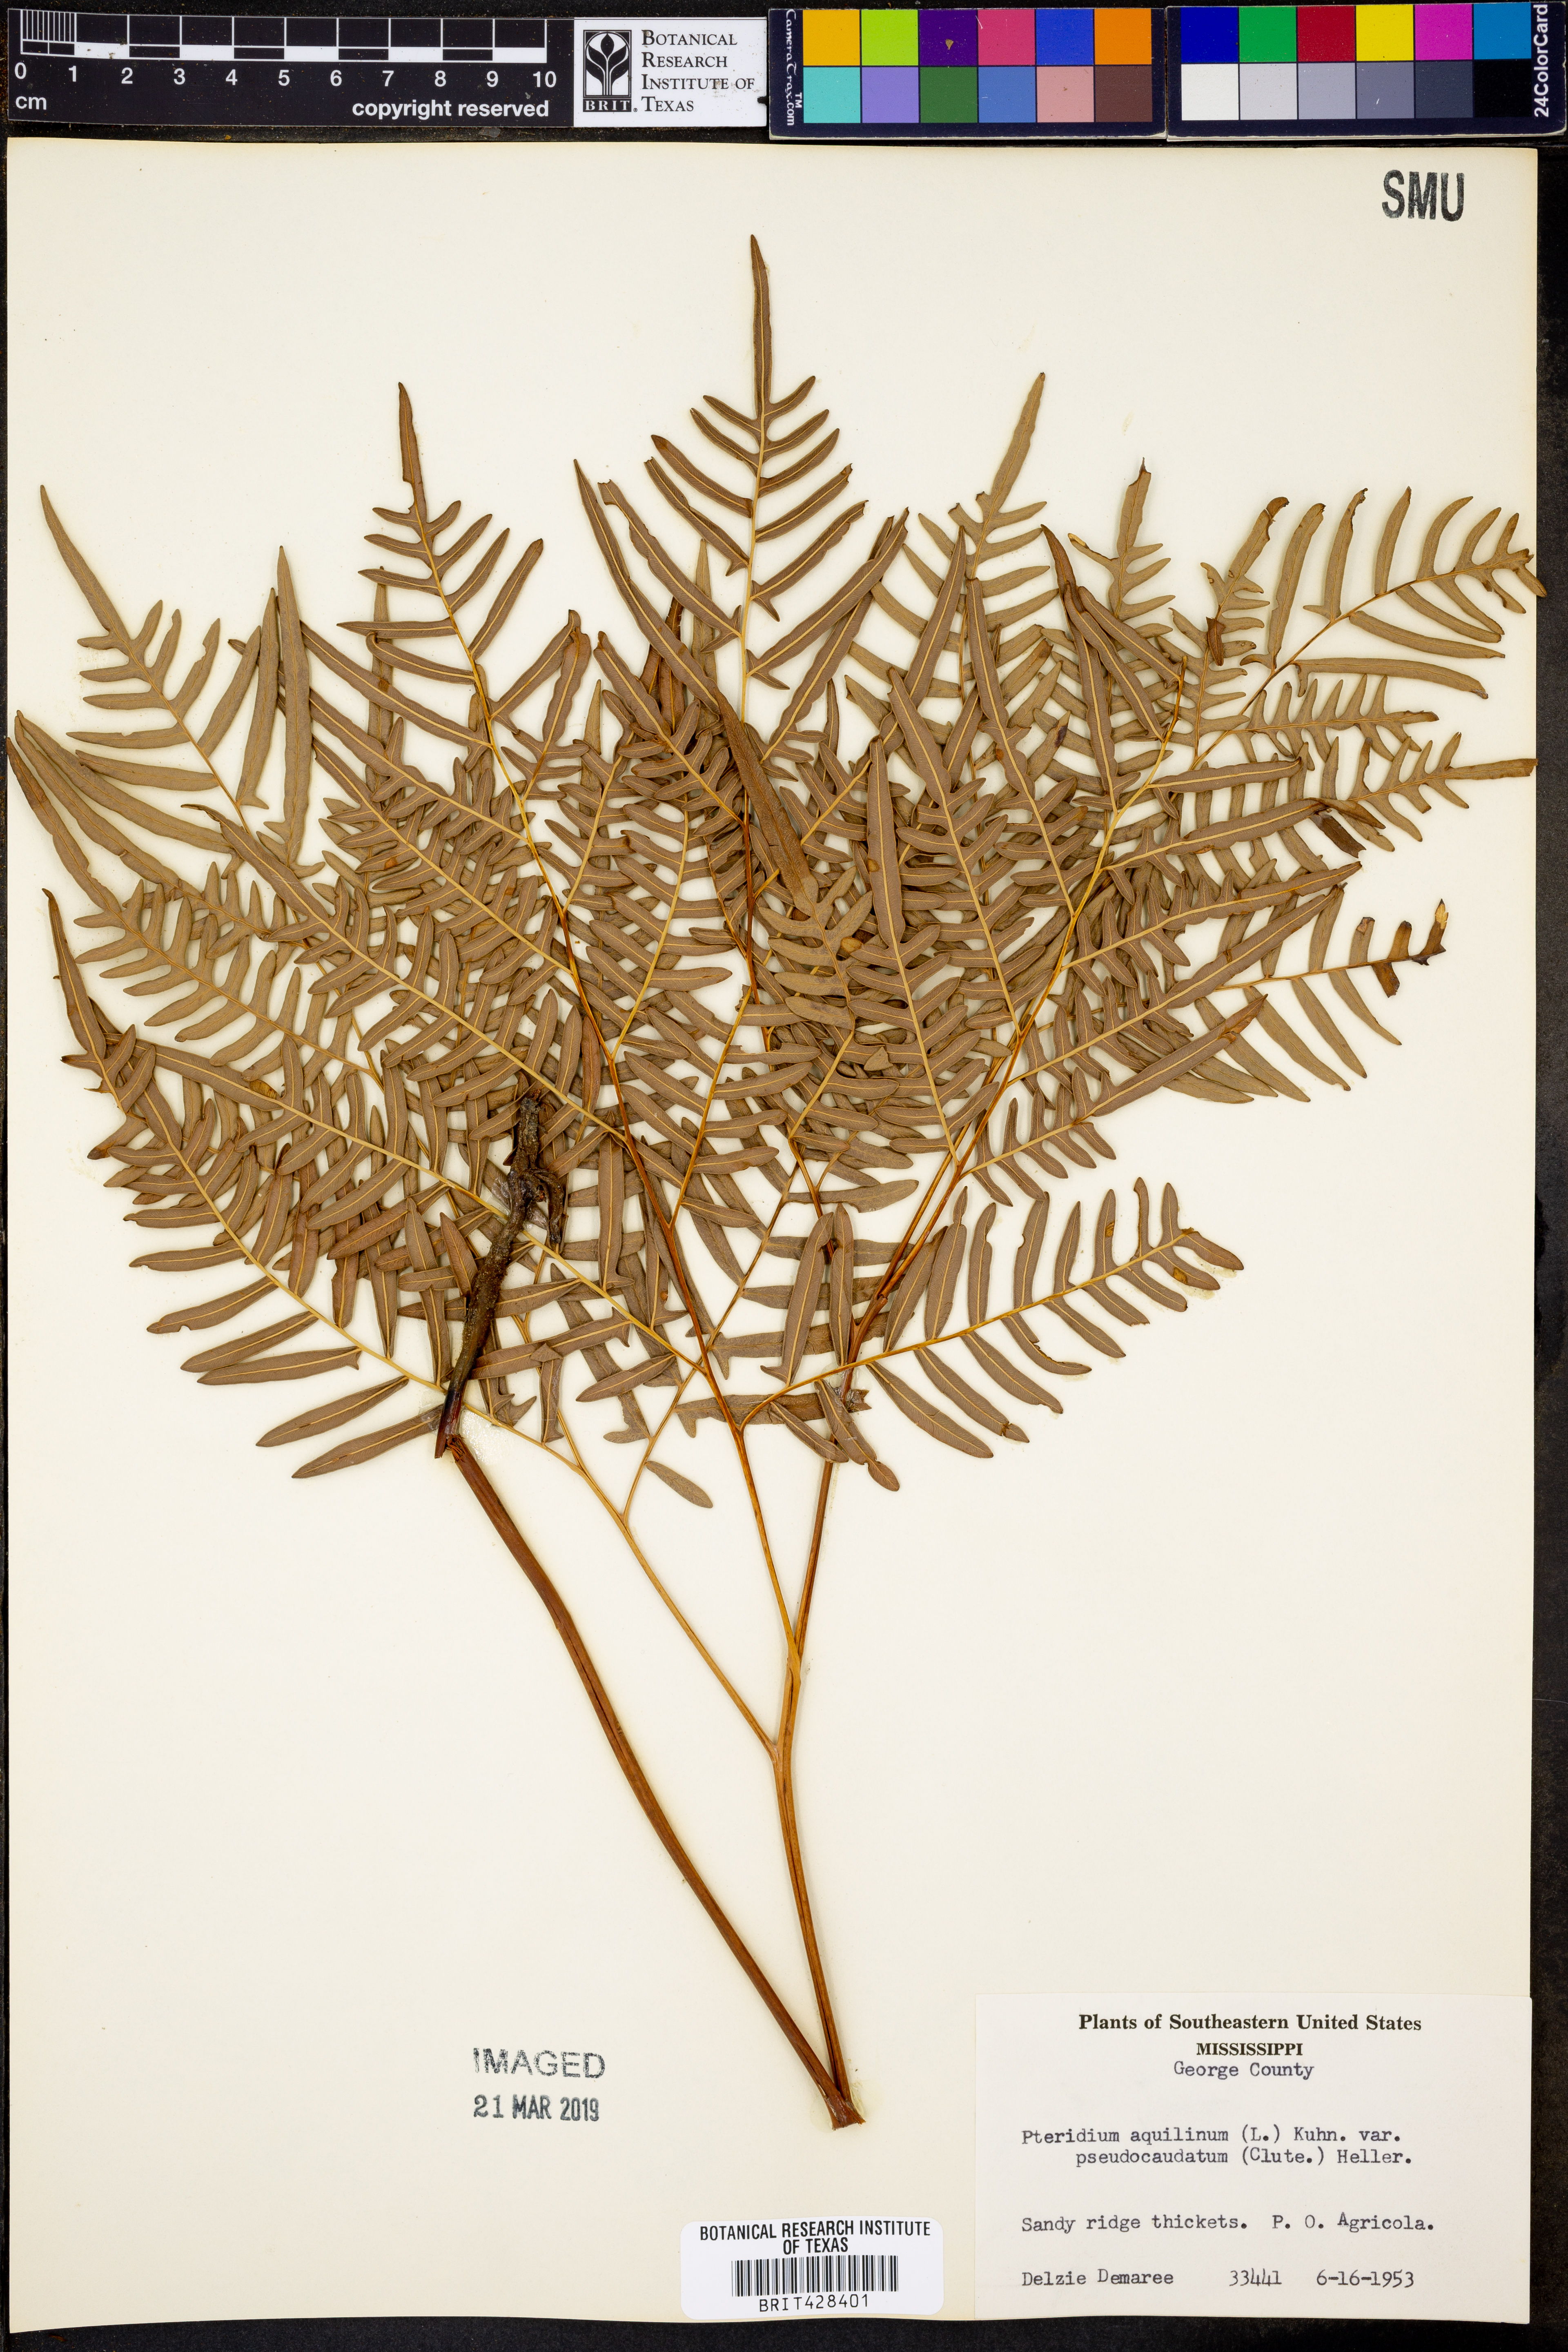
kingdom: Plantae
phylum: Tracheophyta
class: Polypodiopsida
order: Polypodiales
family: Dennstaedtiaceae
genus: Pteridium
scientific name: Pteridium aquilinum
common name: Bracken
